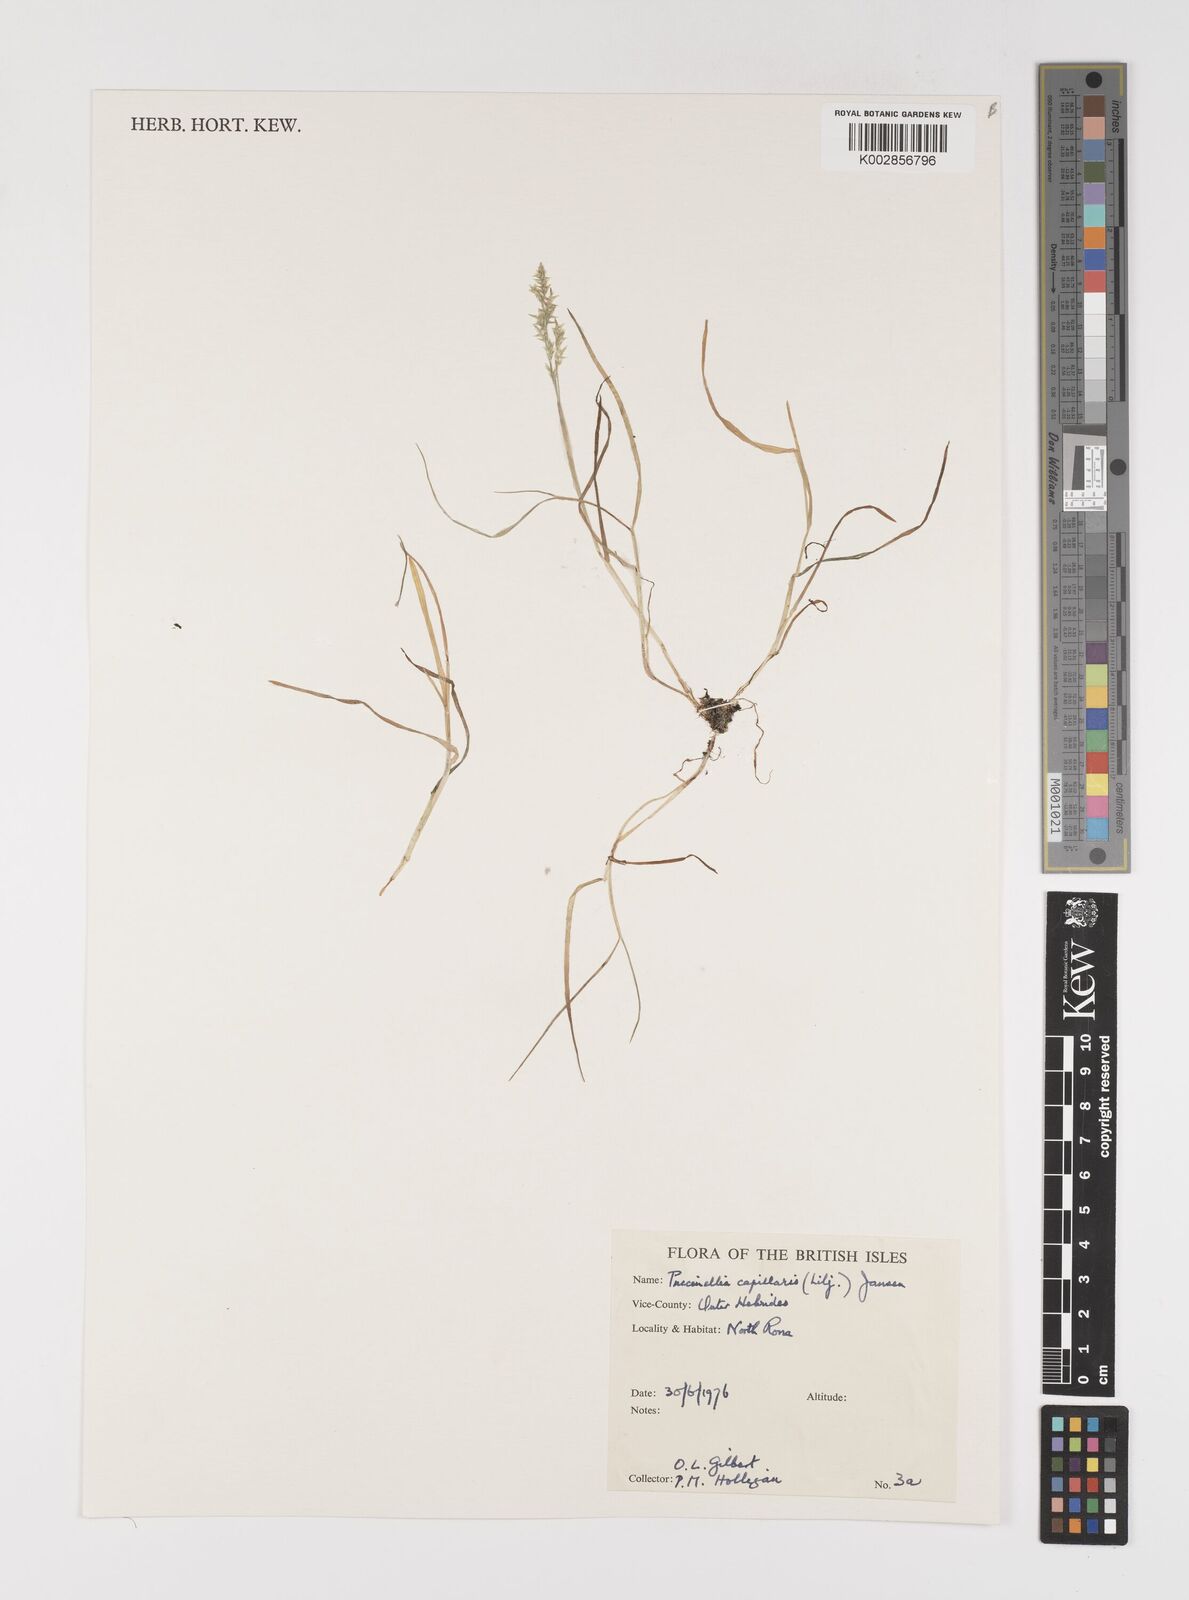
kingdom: Plantae
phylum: Tracheophyta
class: Liliopsida
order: Poales
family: Poaceae
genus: Puccinellia
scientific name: Puccinellia distans
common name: Weeping alkaligrass
